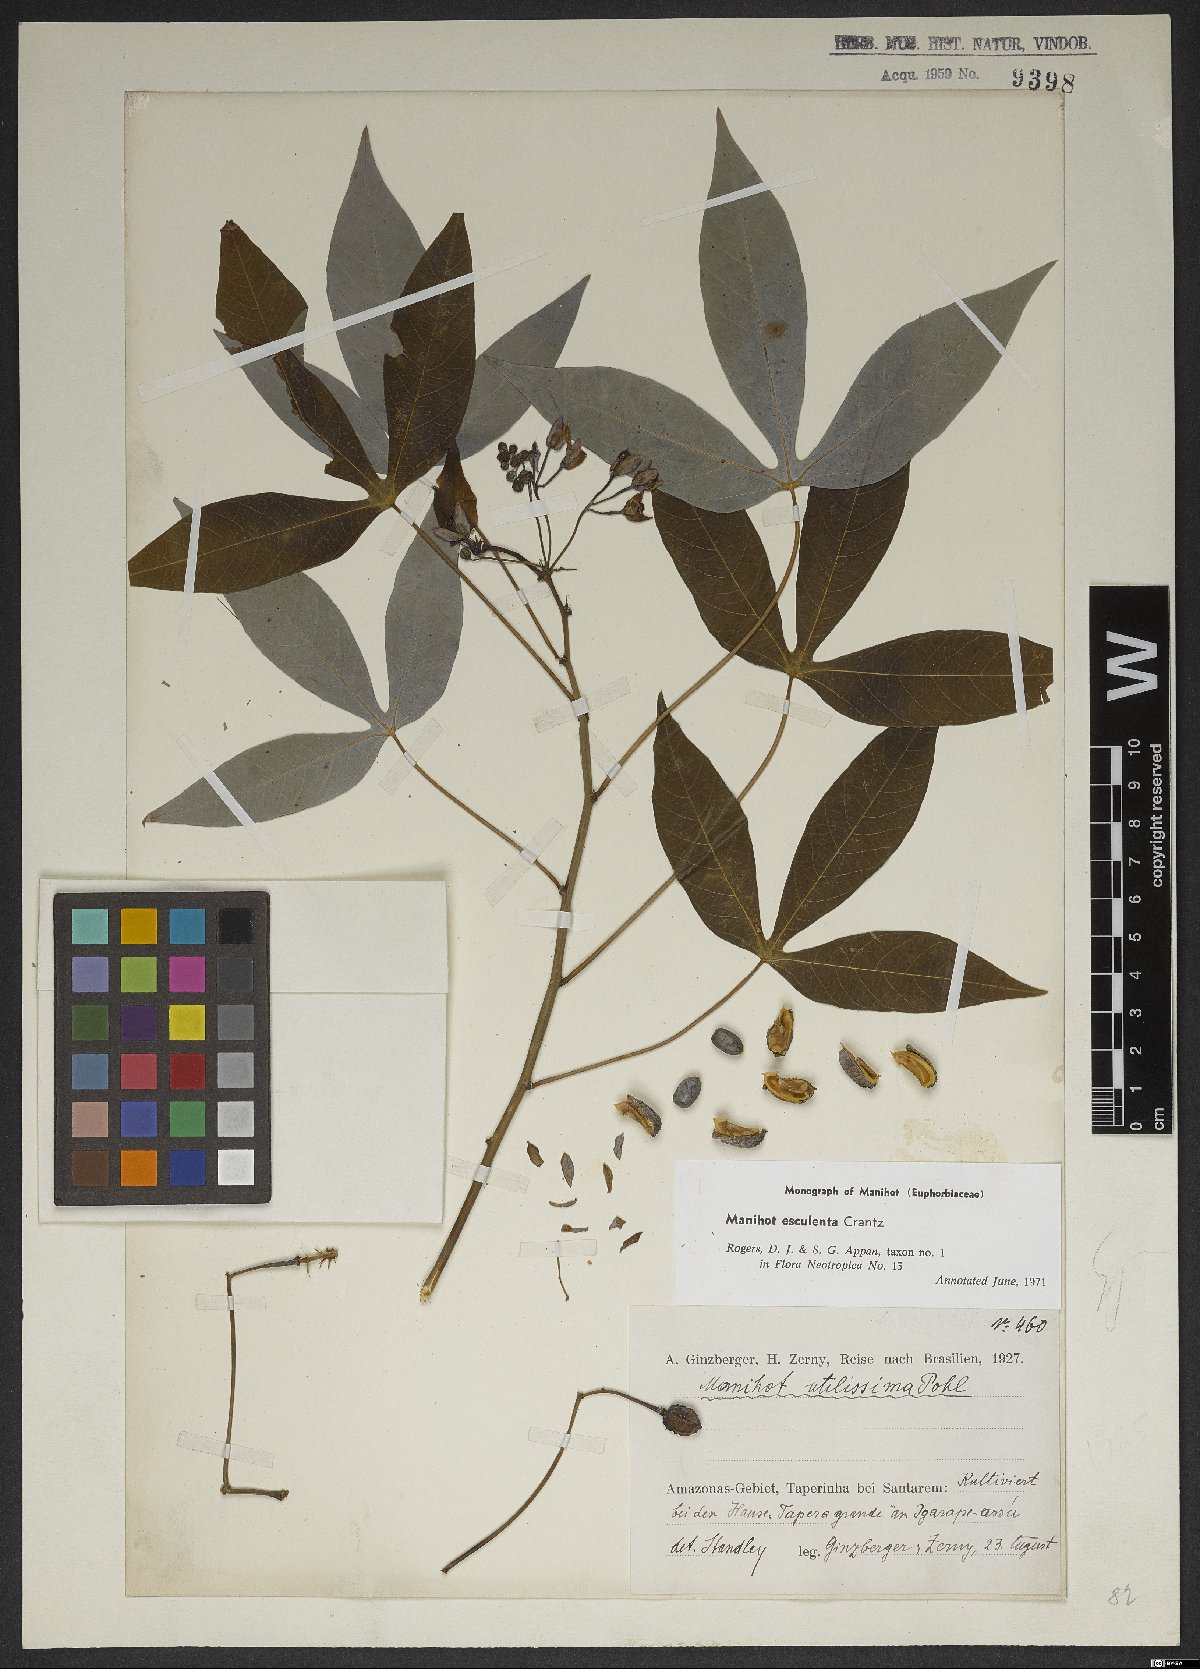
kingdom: Plantae
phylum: Tracheophyta
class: Magnoliopsida
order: Malpighiales
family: Euphorbiaceae
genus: Manihot
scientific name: Manihot esculenta
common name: Cassava
